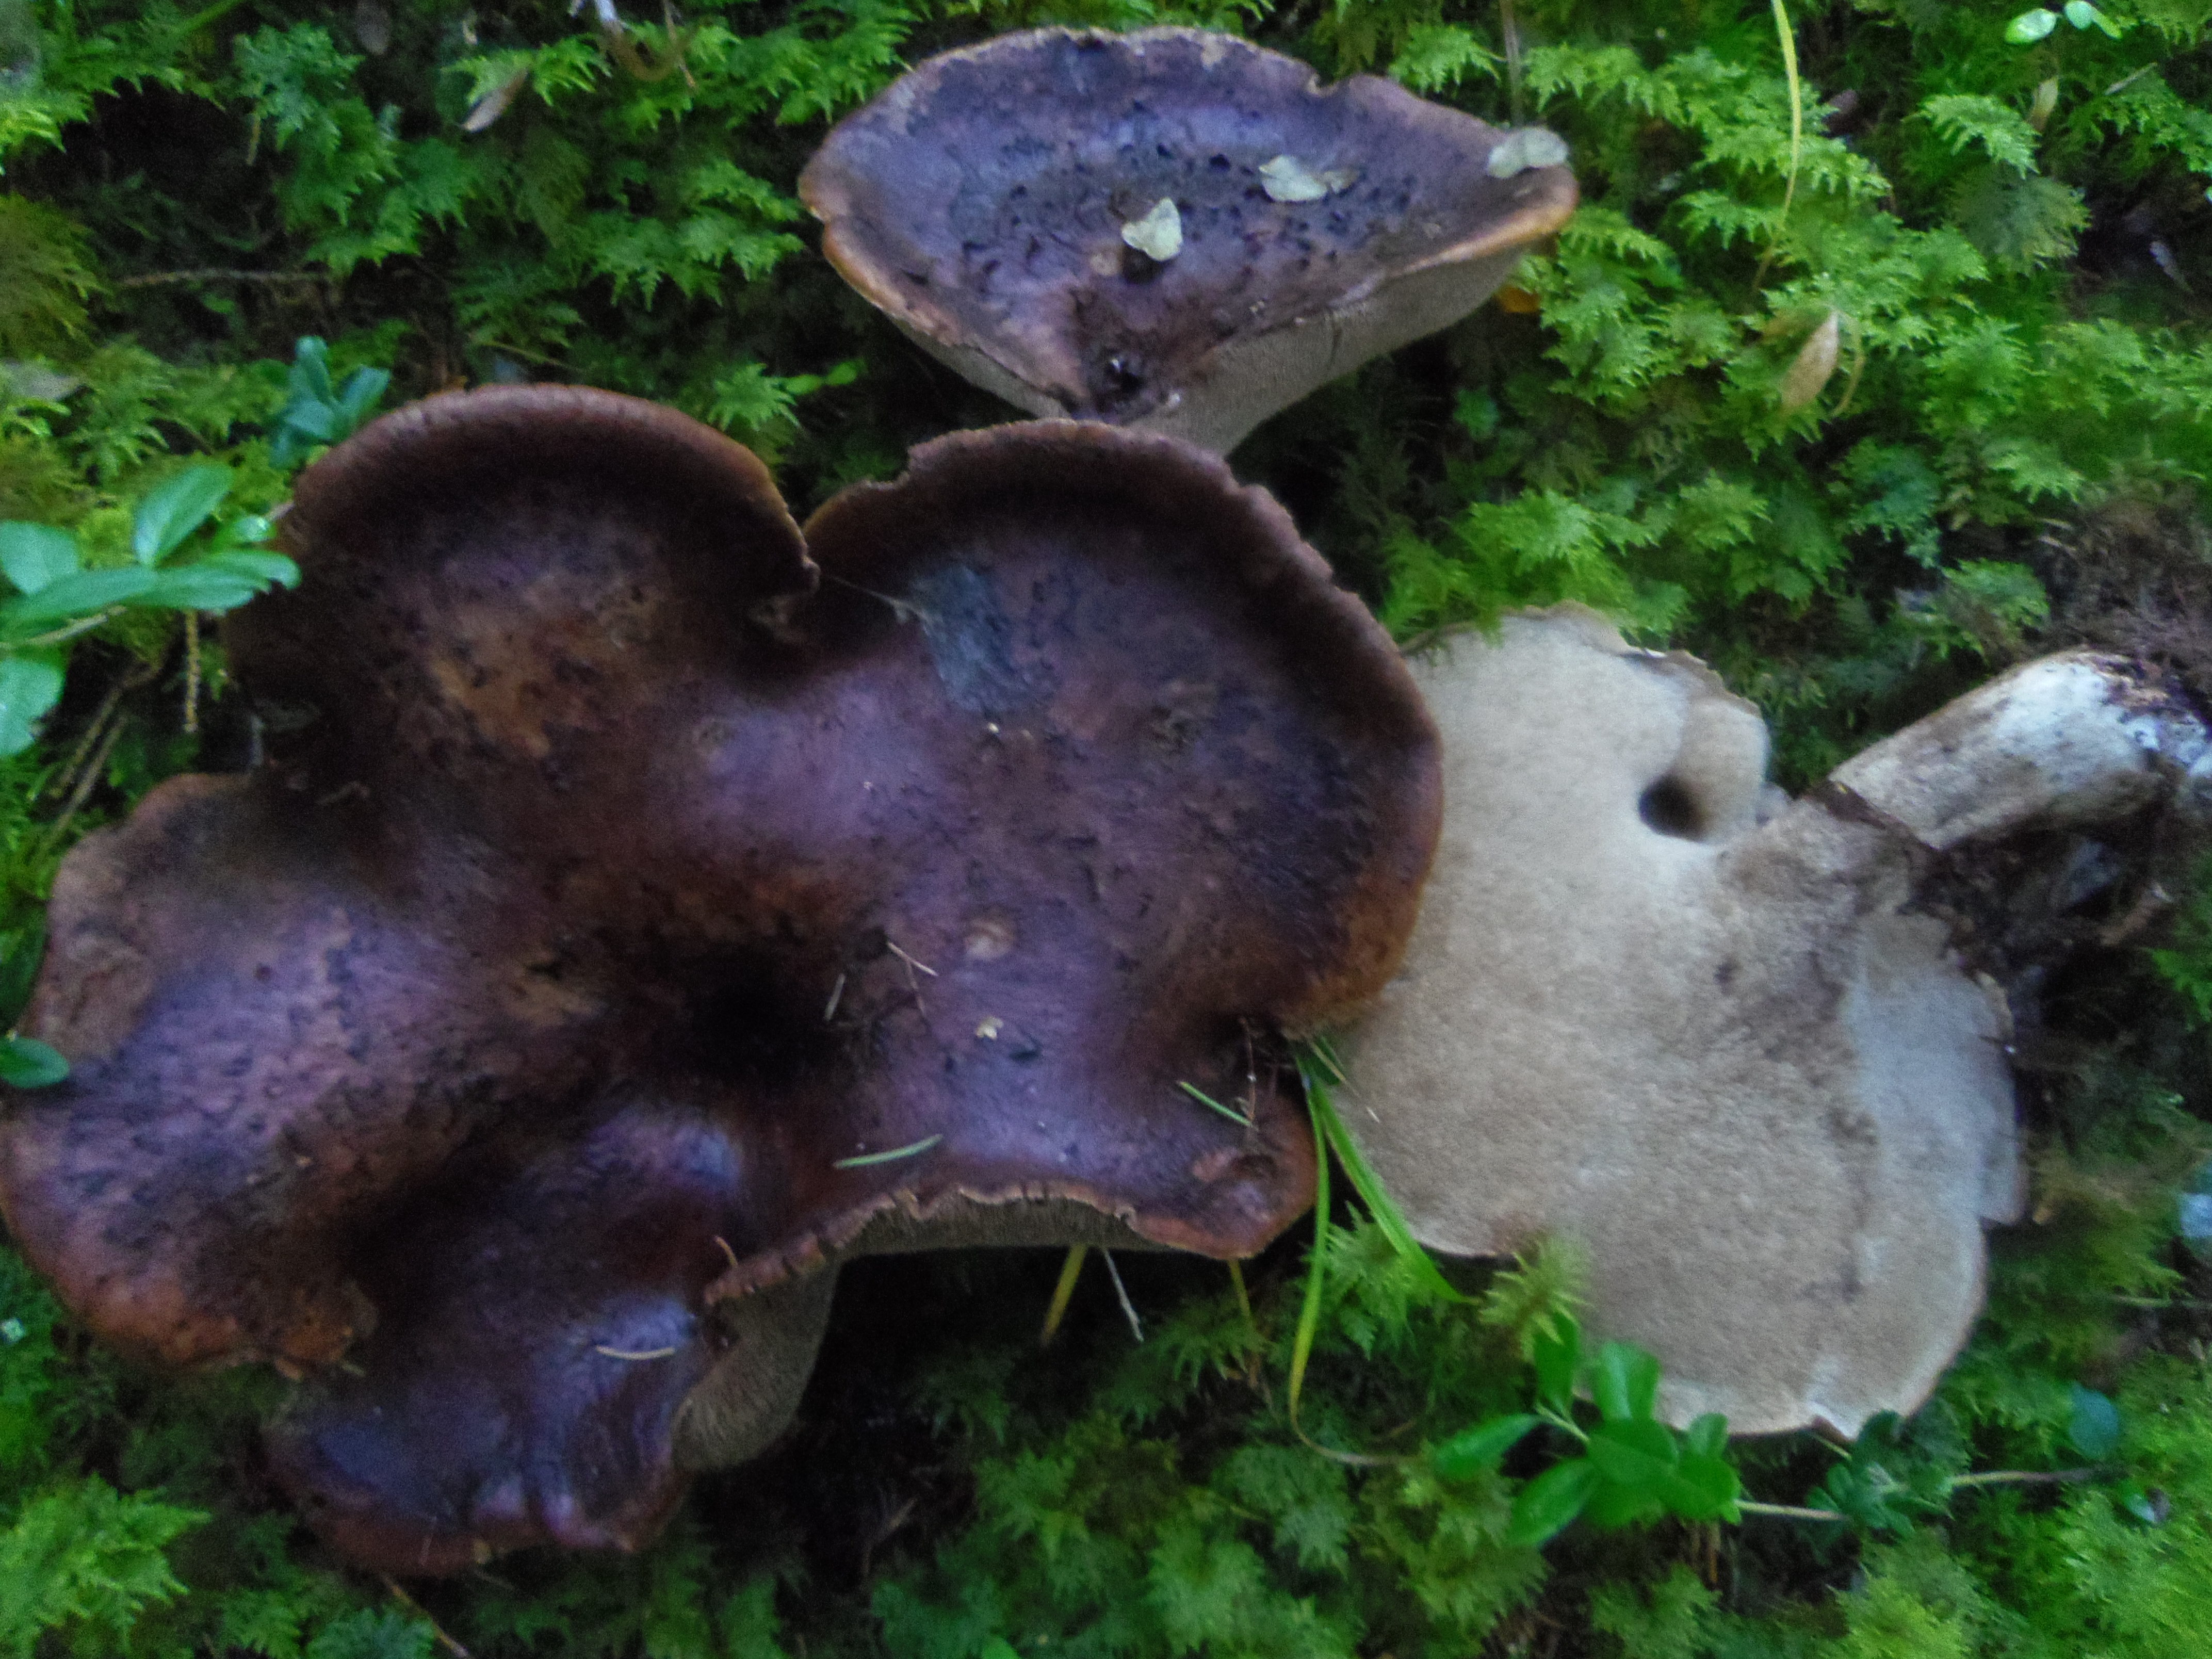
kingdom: Fungi
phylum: Basidiomycota
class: Agaricomycetes
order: Thelephorales
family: Bankeraceae
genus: Sarcodon
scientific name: Sarcodon imbricatus
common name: Shingled hedgehog
